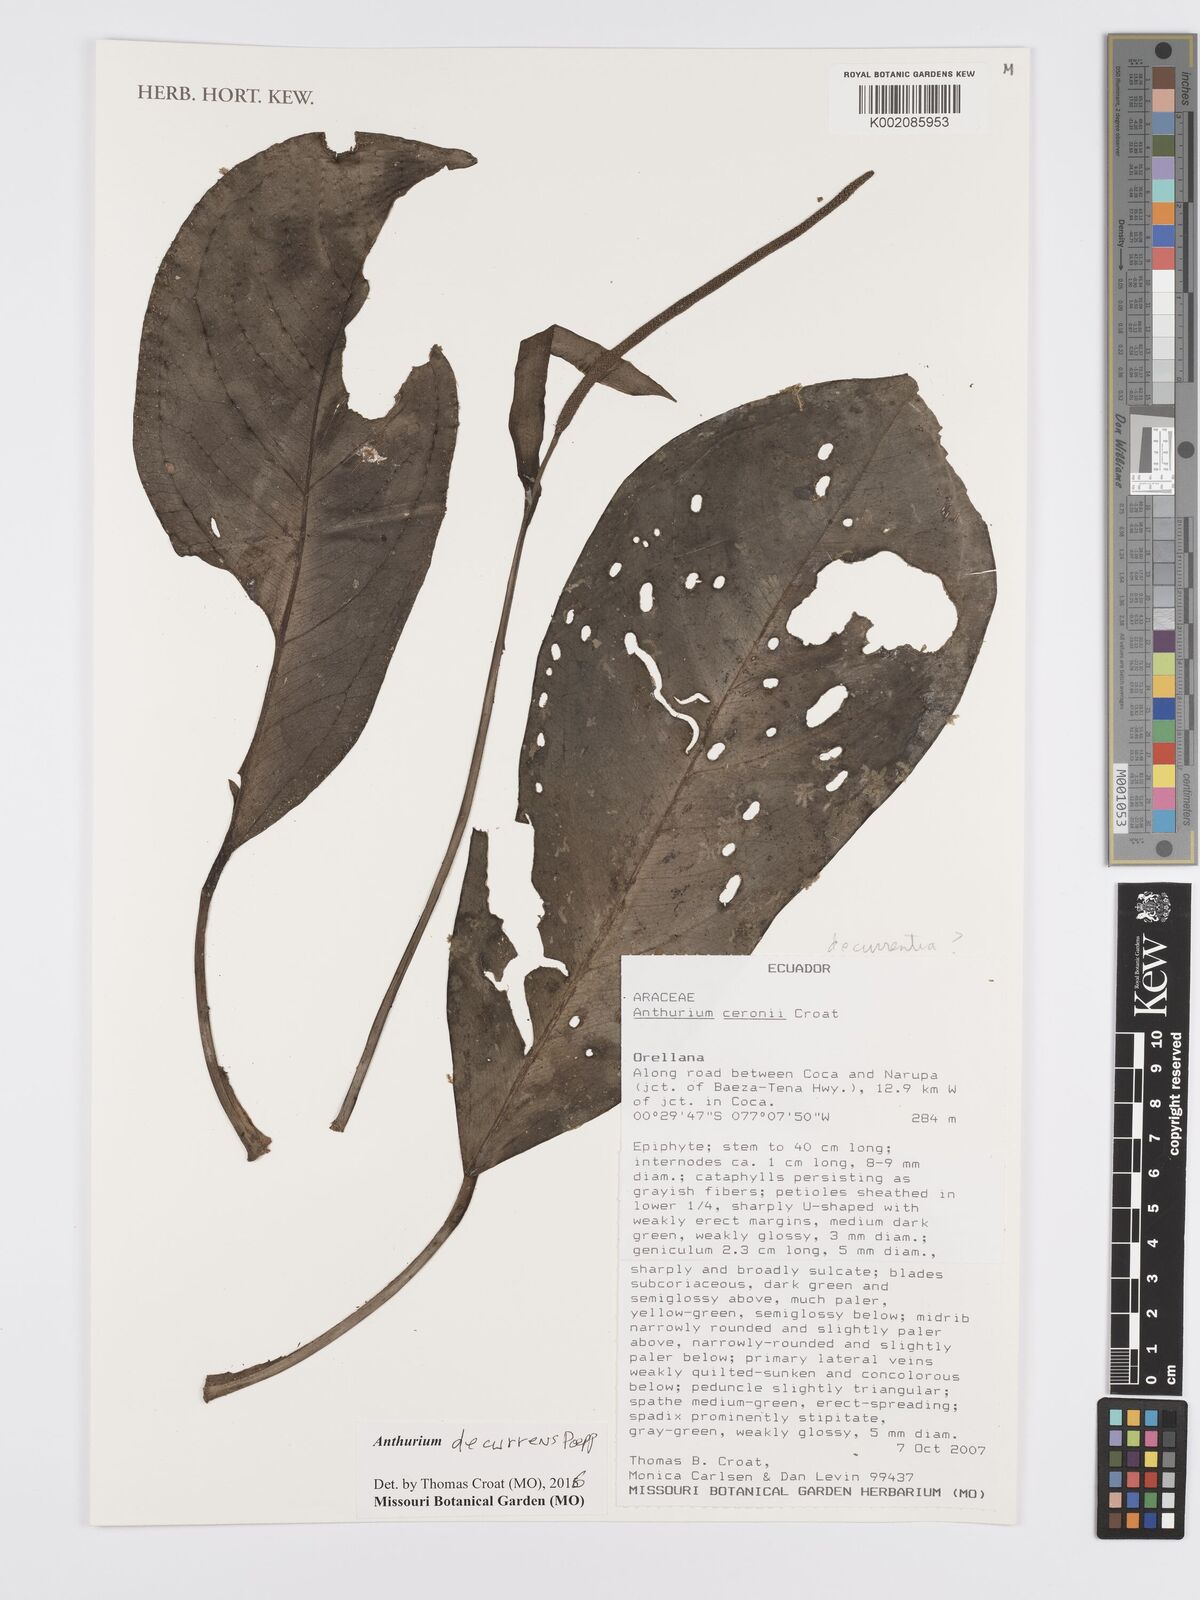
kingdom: Plantae
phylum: Tracheophyta
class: Liliopsida
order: Alismatales
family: Araceae
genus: Anthurium
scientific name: Anthurium decurrens
